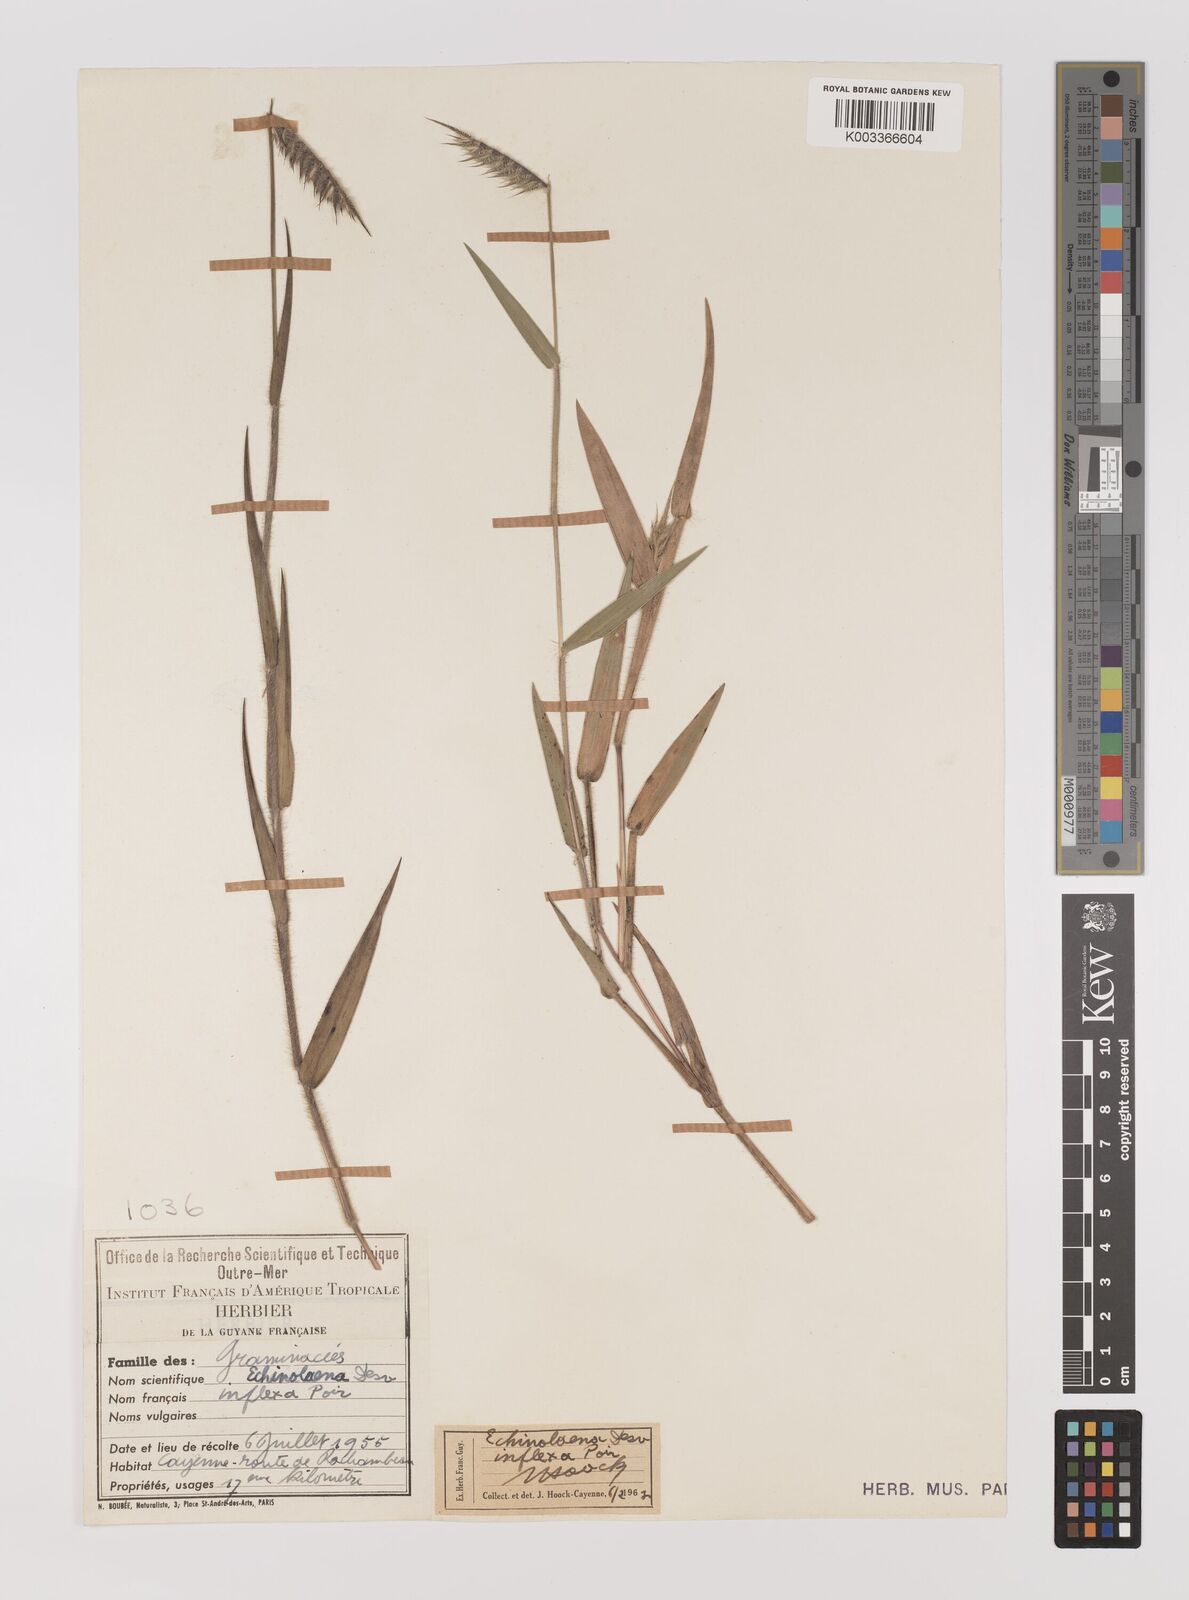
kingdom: Plantae
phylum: Tracheophyta
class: Liliopsida
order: Poales
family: Poaceae
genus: Echinolaena
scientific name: Echinolaena inflexa
